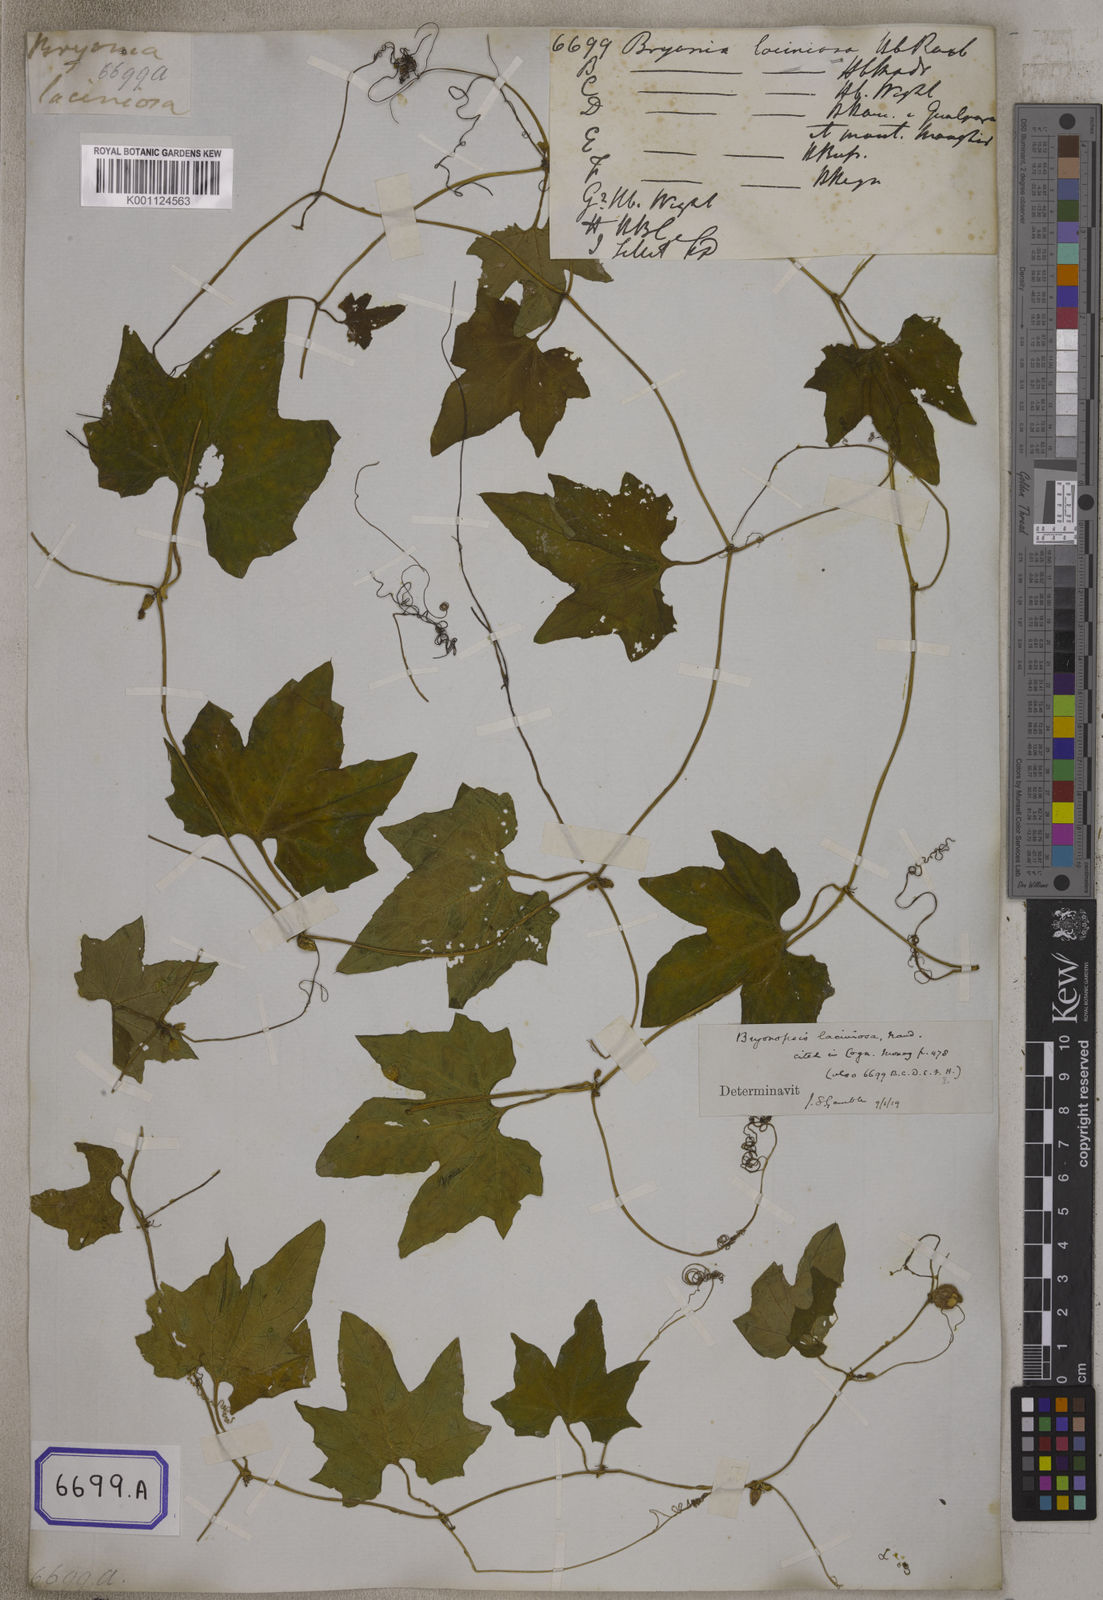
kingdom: Plantae
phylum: Tracheophyta
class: Magnoliopsida
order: Cucurbitales
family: Cucurbitaceae
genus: Diplocyclos
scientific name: Diplocyclos palmatus
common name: Striped-cucumber
